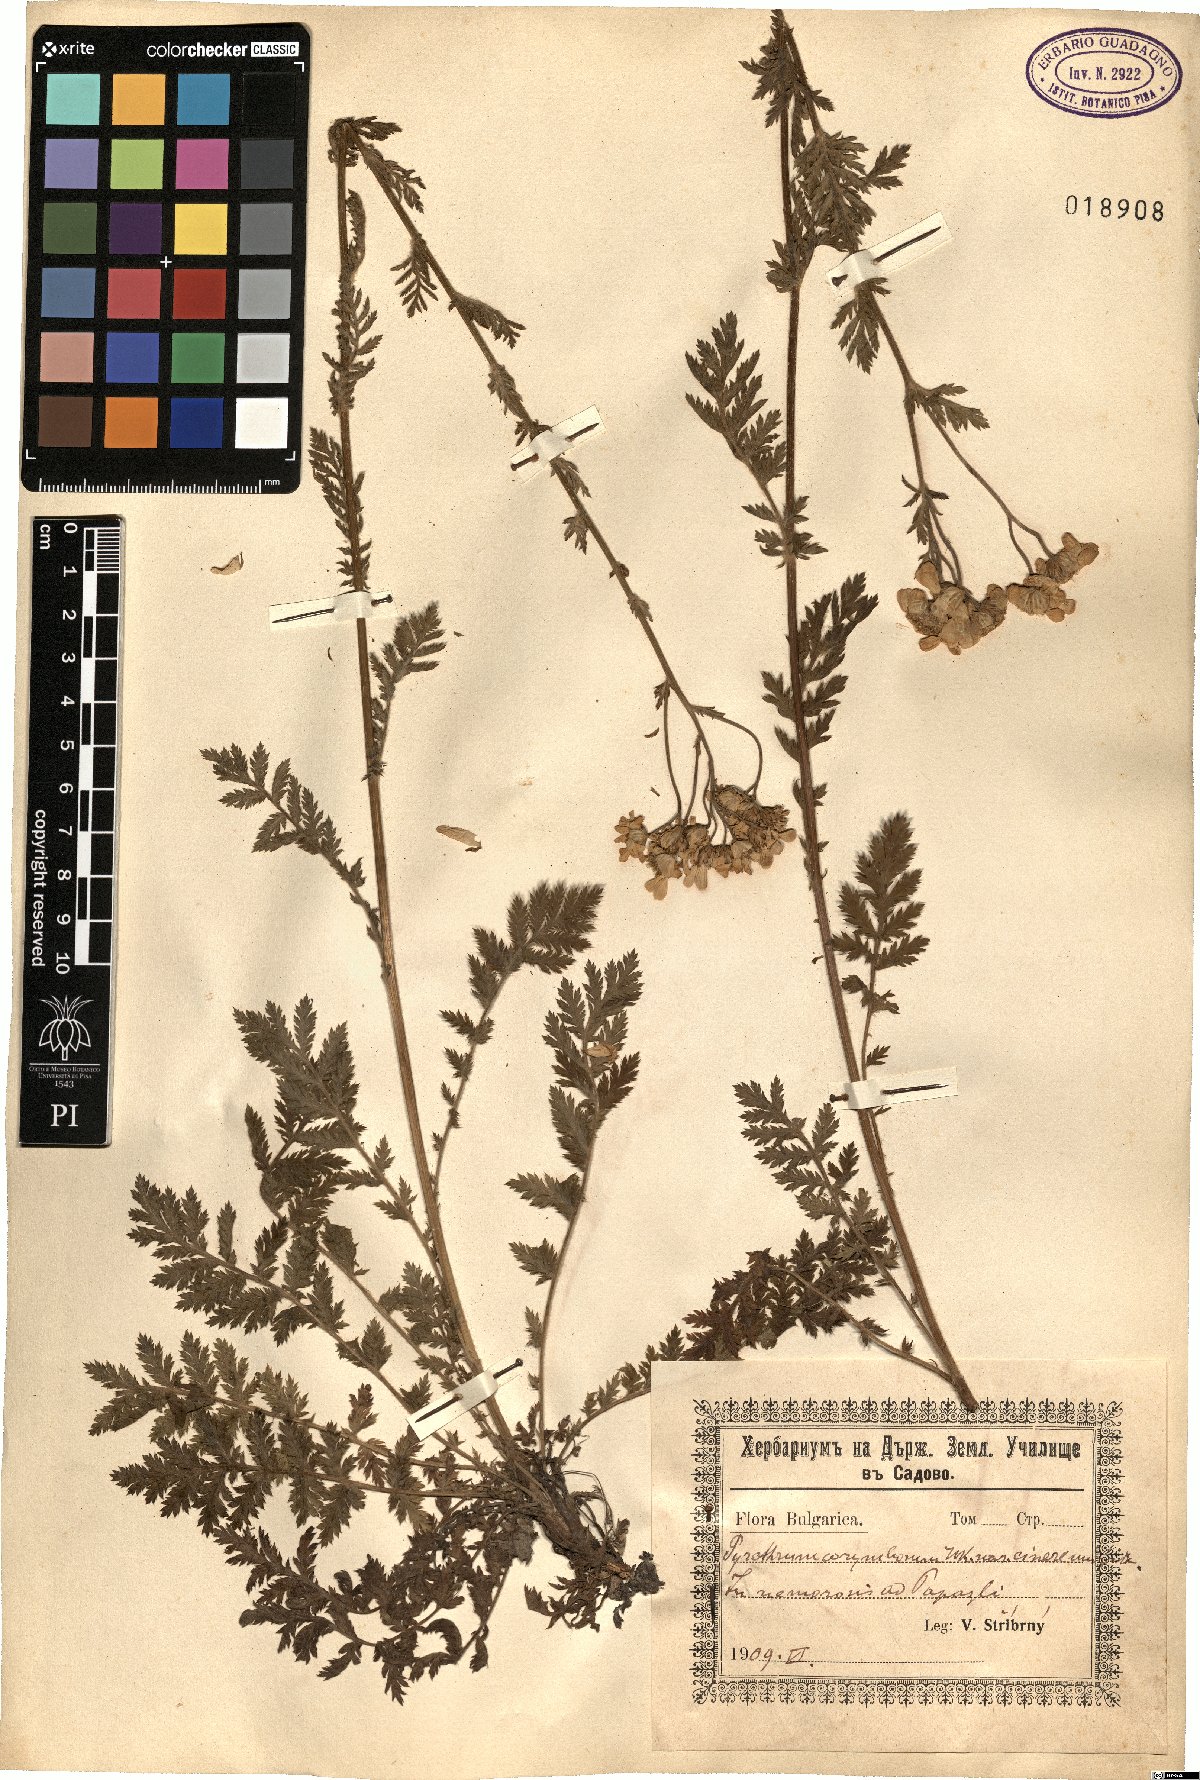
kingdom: Plantae
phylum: Tracheophyta
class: Magnoliopsida
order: Asterales
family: Asteraceae
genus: Tanacetum
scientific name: Tanacetum corymbosum
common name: Scentless feverfew
